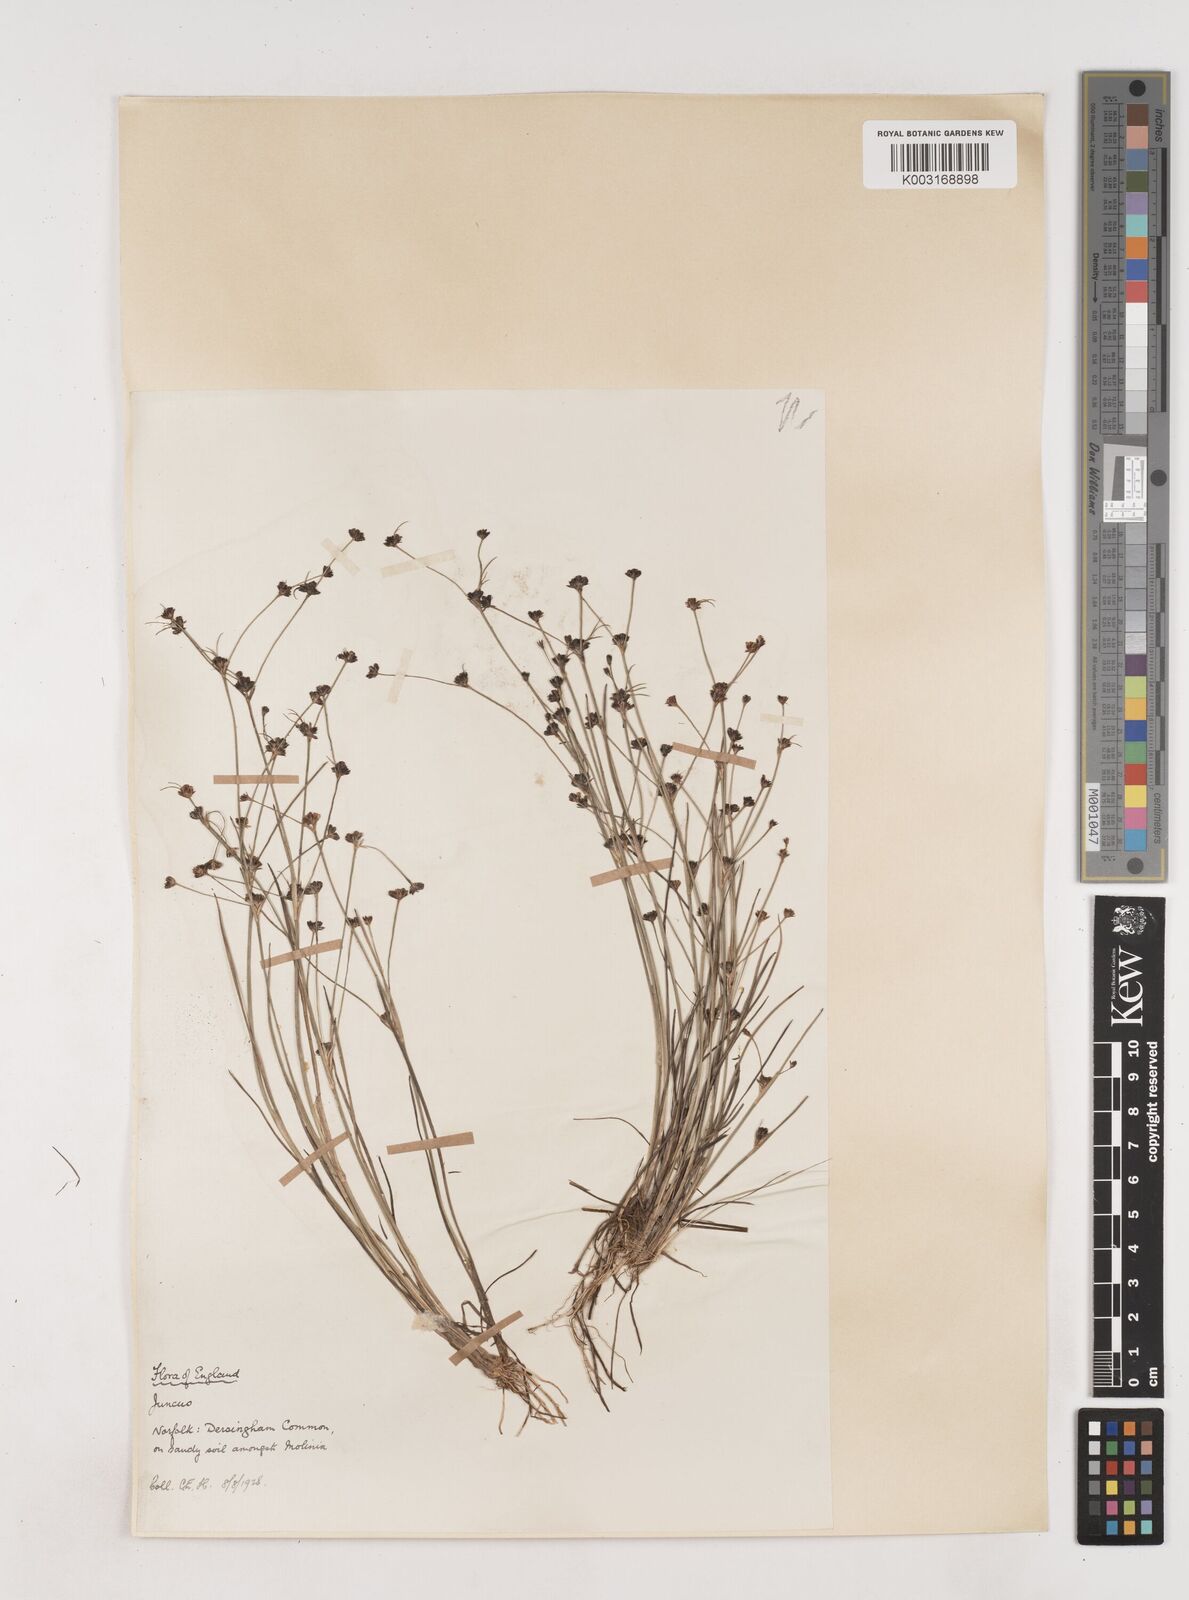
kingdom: Plantae
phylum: Tracheophyta
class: Liliopsida
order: Poales
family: Juncaceae
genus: Juncus
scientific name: Juncus bulbosus
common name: Bulbous rush
